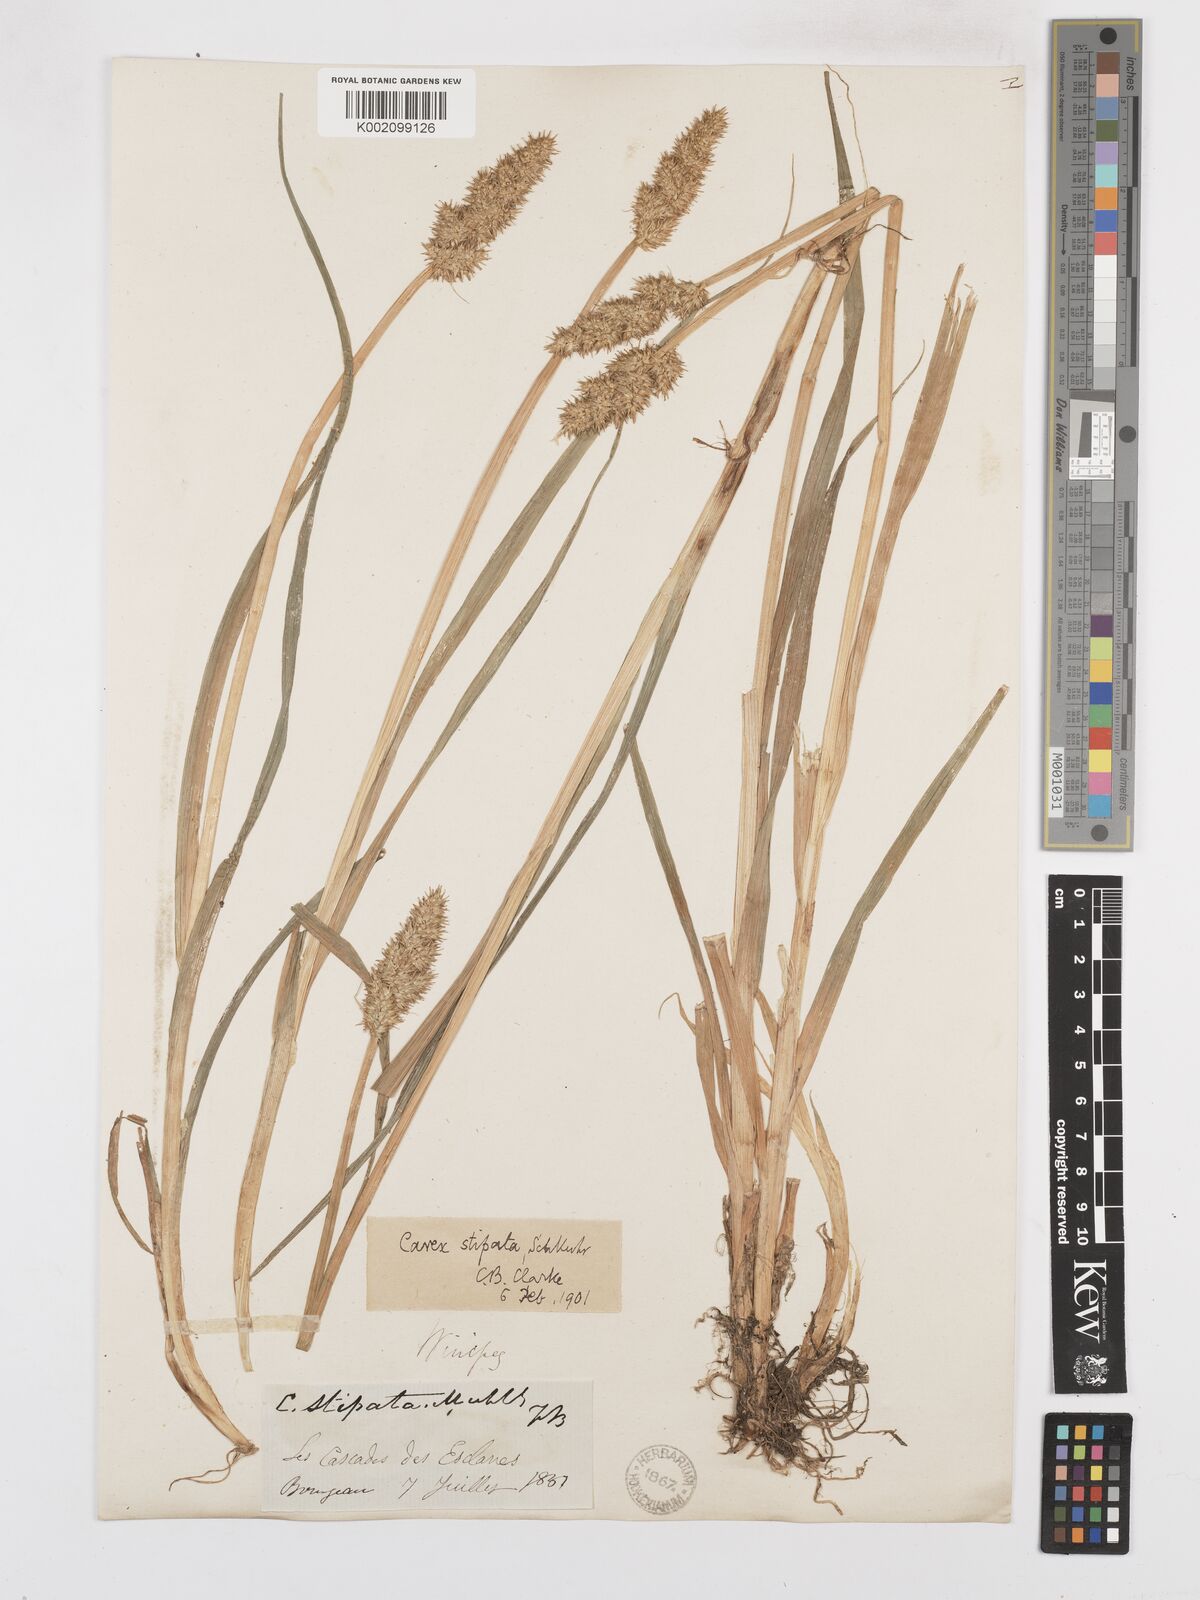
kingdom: Plantae
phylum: Tracheophyta
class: Liliopsida
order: Poales
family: Cyperaceae
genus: Carex
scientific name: Carex stipata
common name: Awl-fruited sedge
